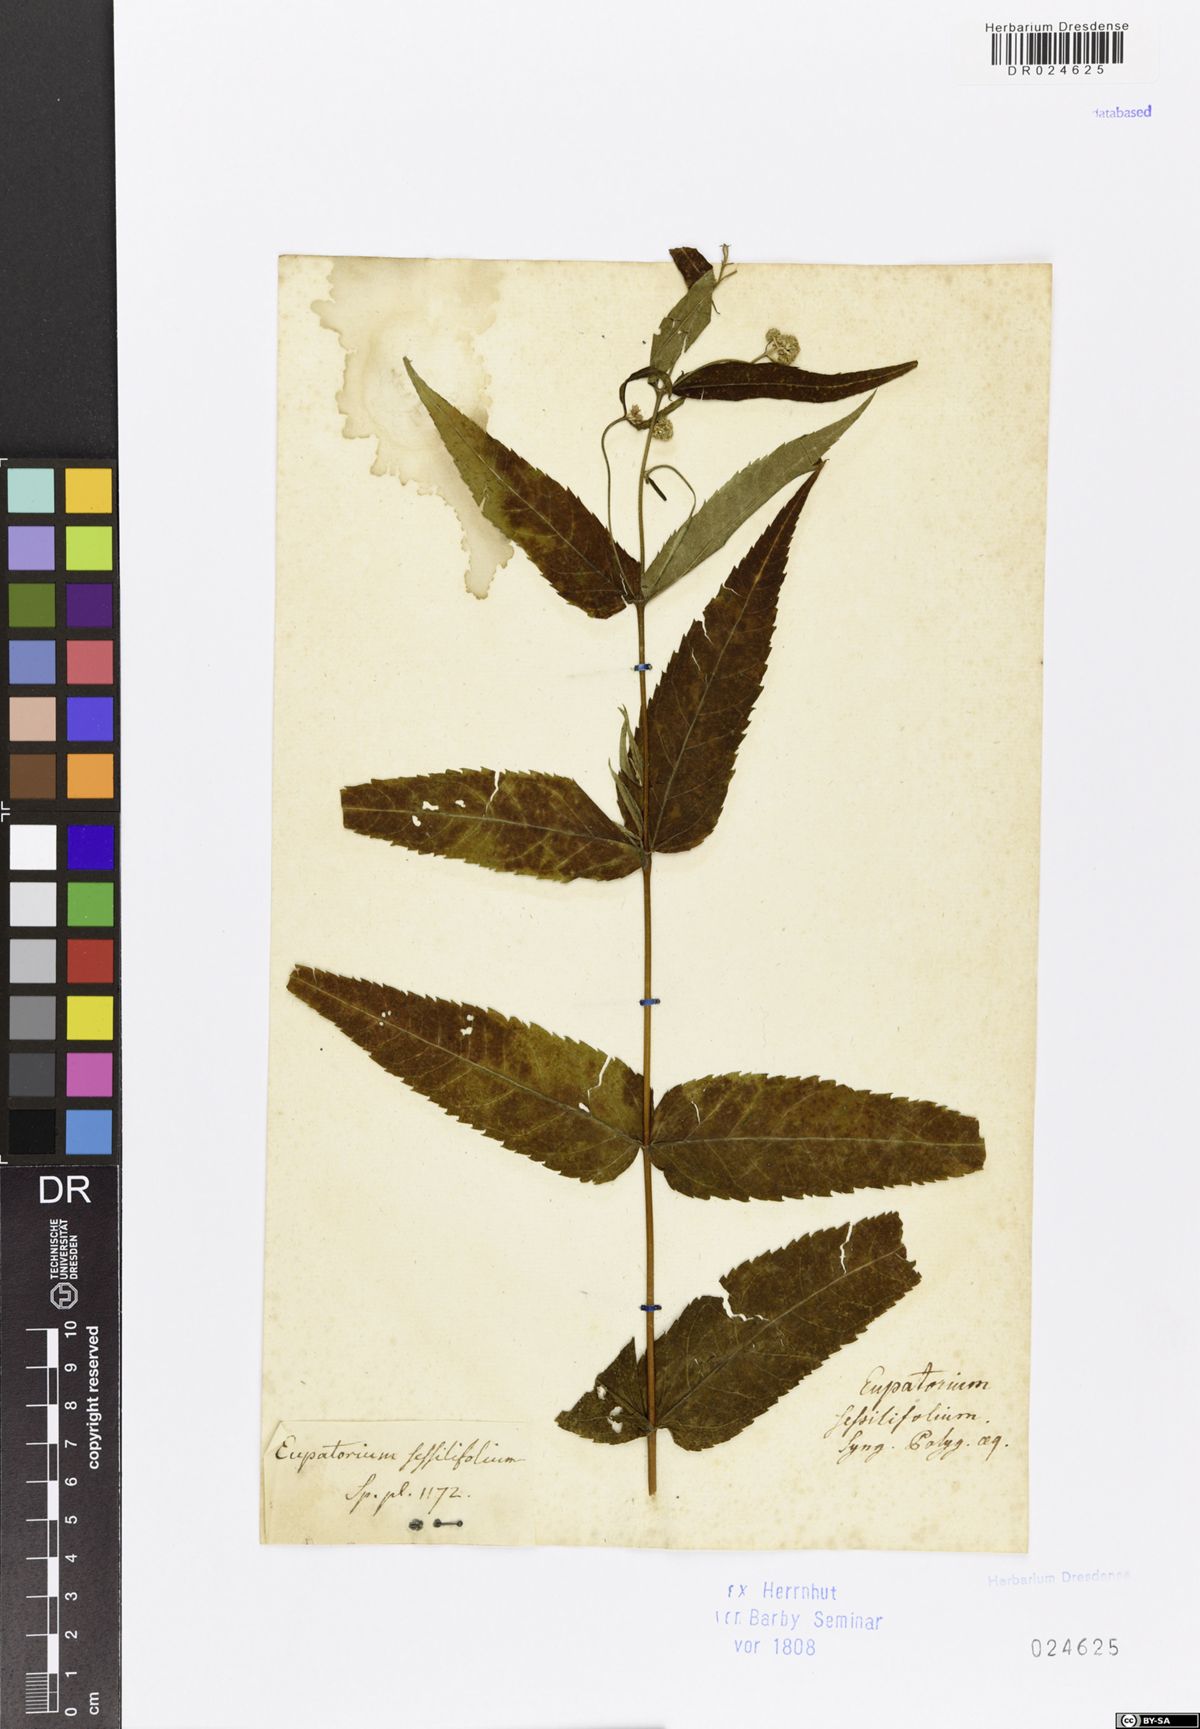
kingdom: Plantae
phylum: Tracheophyta
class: Magnoliopsida
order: Asterales
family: Asteraceae
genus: Eupatorium
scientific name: Eupatorium sessilifolium
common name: Upland boneset
